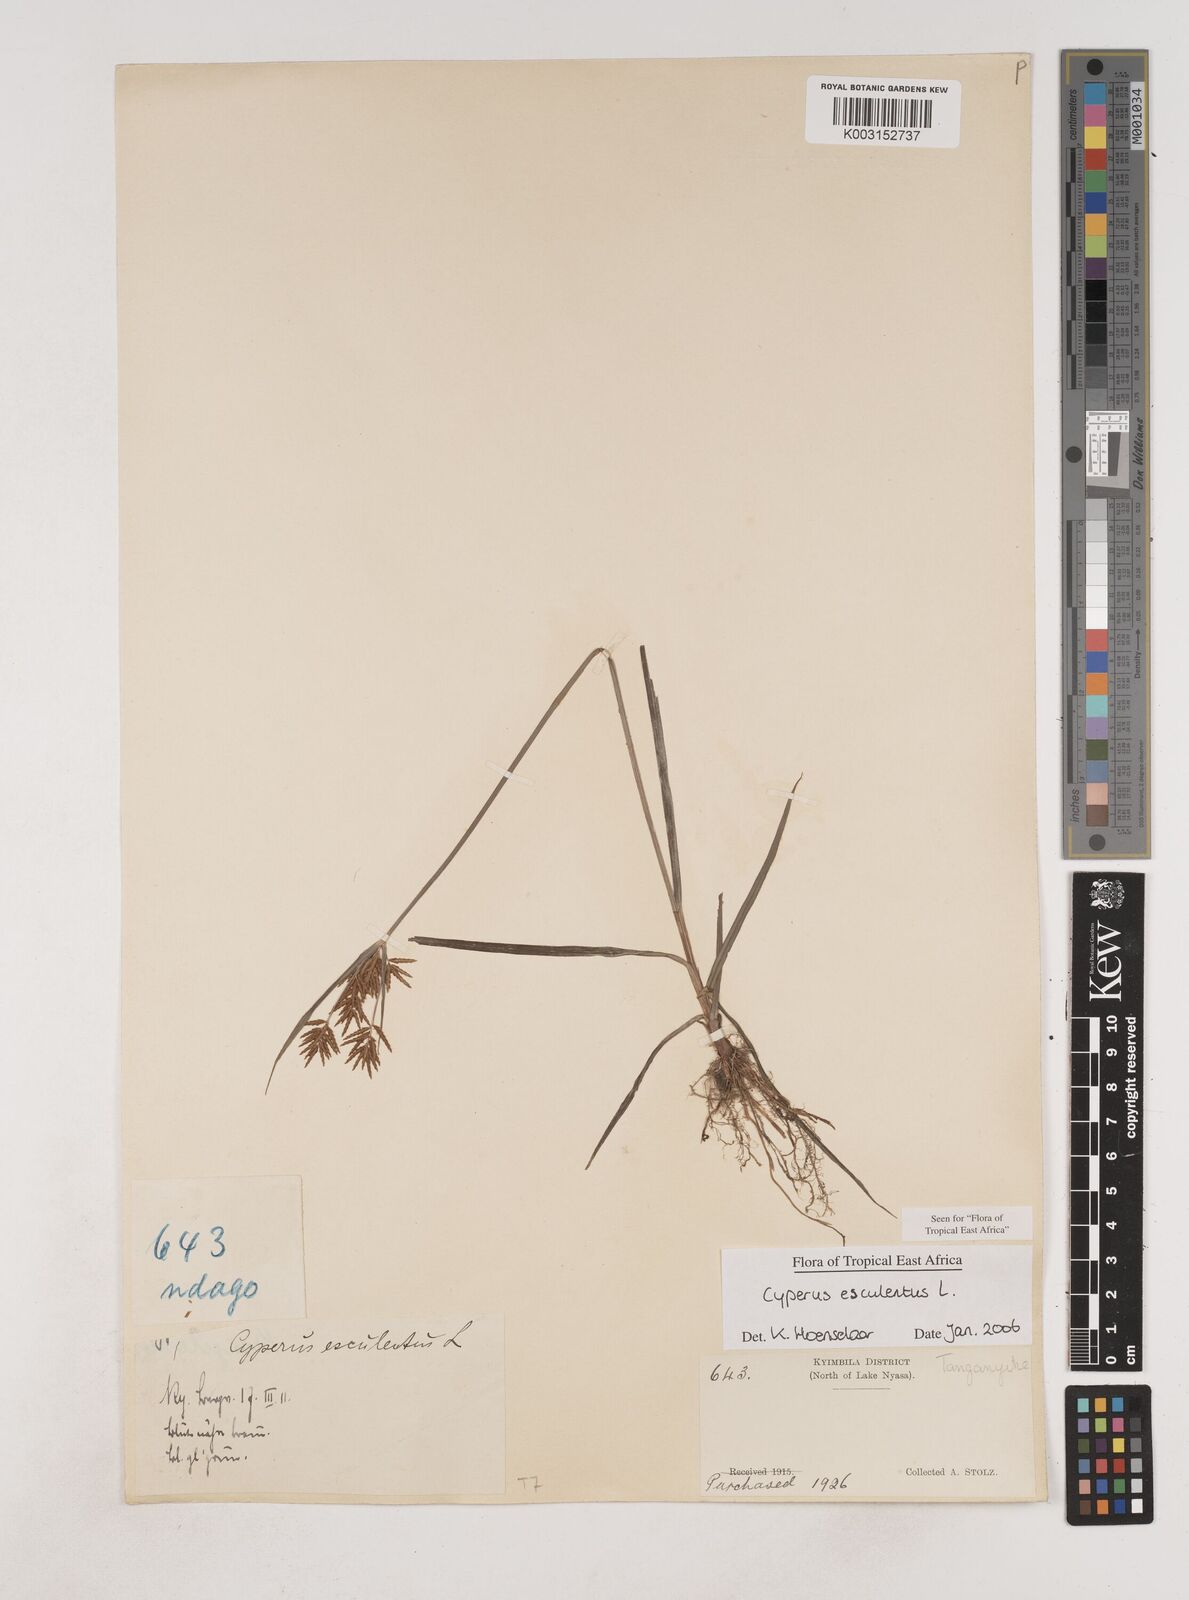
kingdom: Plantae
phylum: Tracheophyta
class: Liliopsida
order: Poales
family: Cyperaceae
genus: Cyperus
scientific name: Cyperus esculentus
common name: Yellow nutsedge
